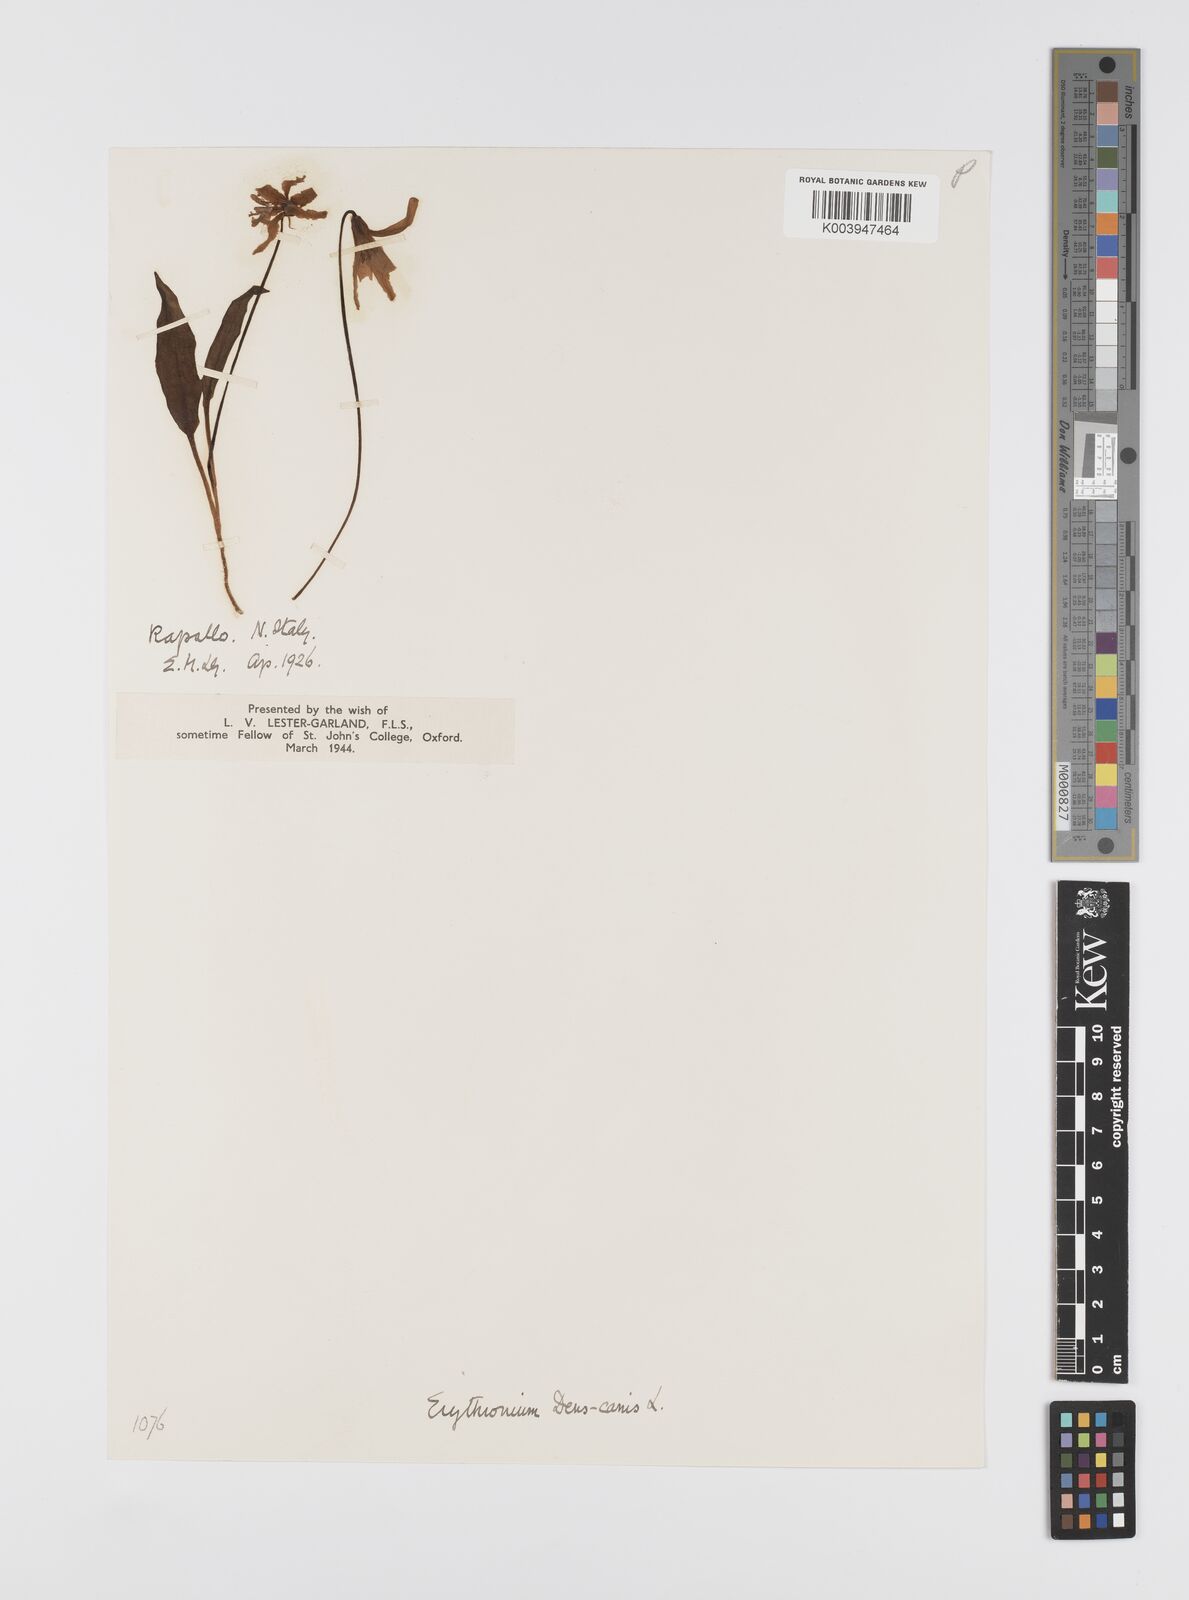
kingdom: Plantae
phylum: Tracheophyta
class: Liliopsida
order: Liliales
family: Liliaceae
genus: Erythronium
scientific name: Erythronium dens-canis
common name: Dog's-tooth-violet
